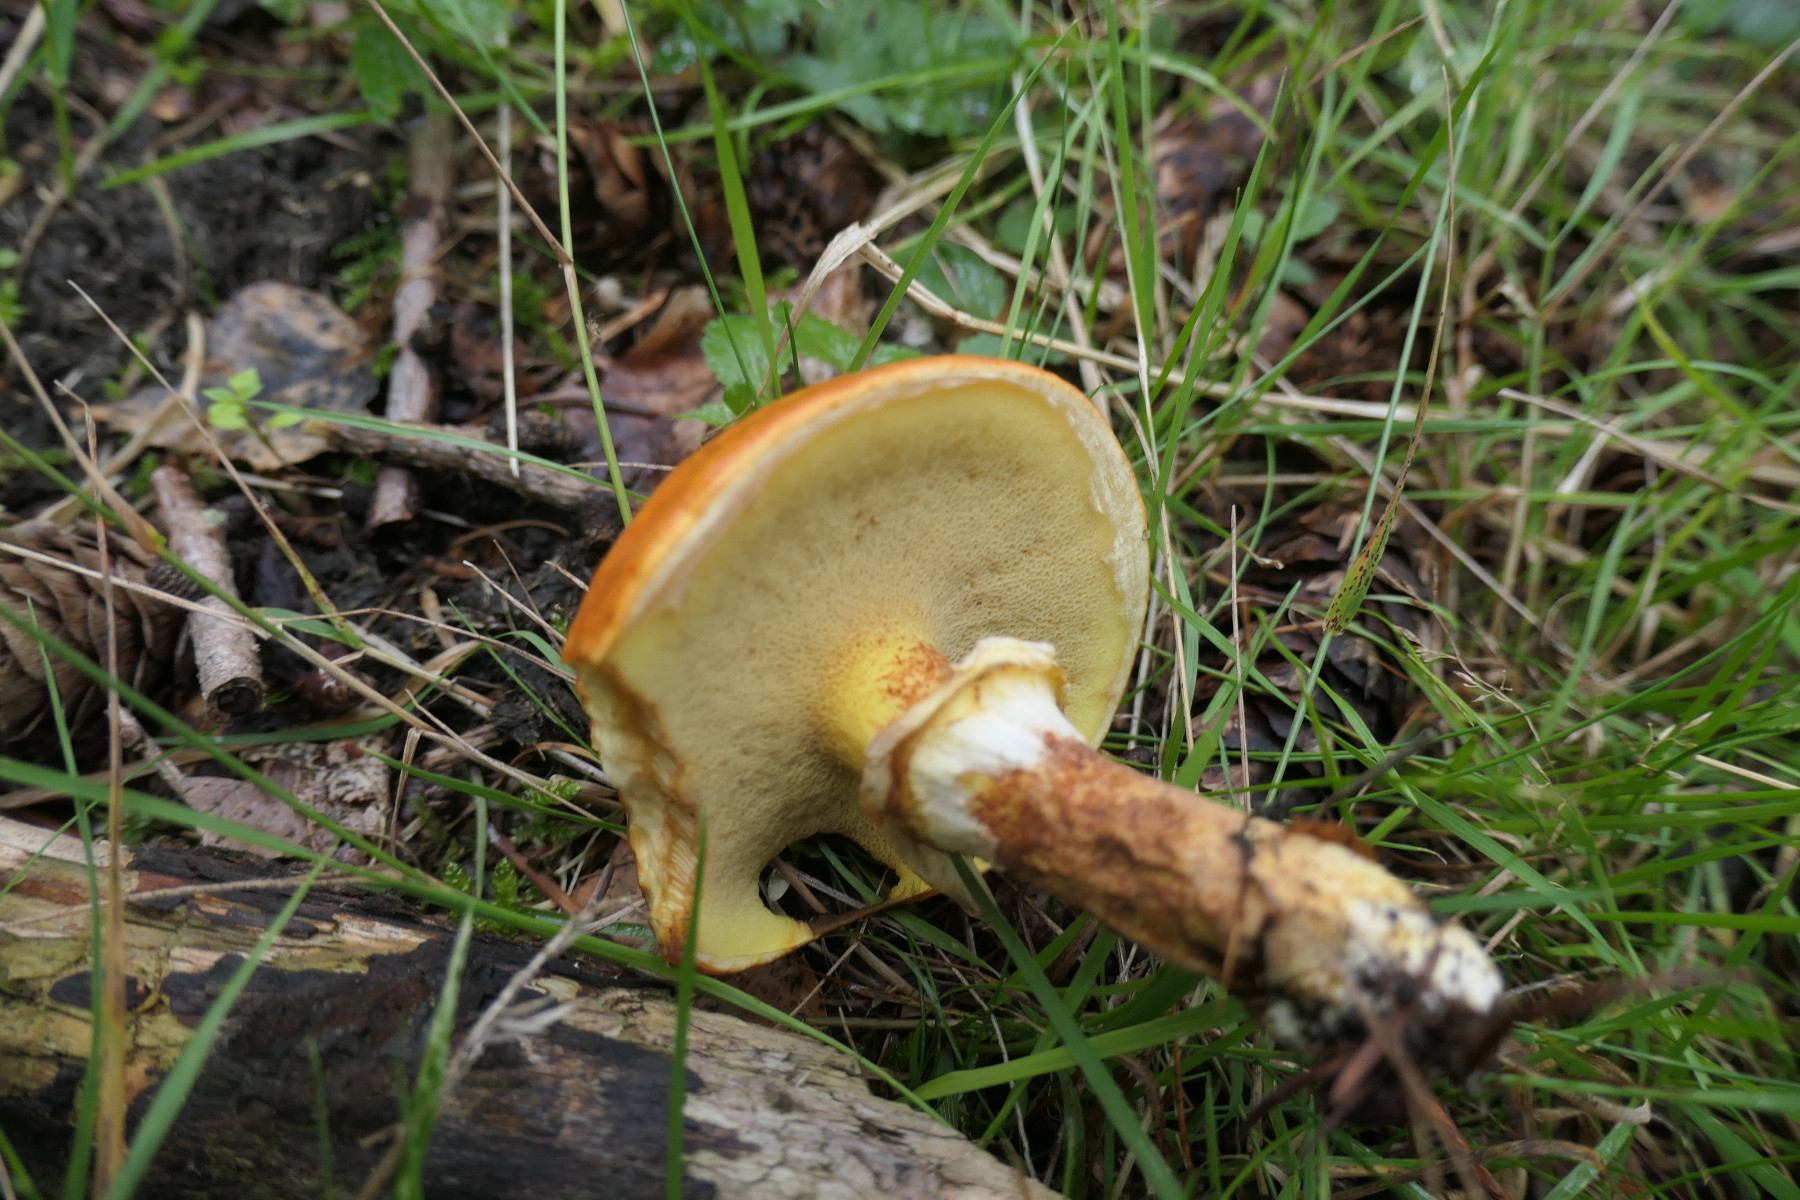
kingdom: Fungi
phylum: Basidiomycota
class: Agaricomycetes
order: Boletales
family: Suillaceae
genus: Suillus
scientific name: Suillus grevillei
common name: lærke-slimrørhat
